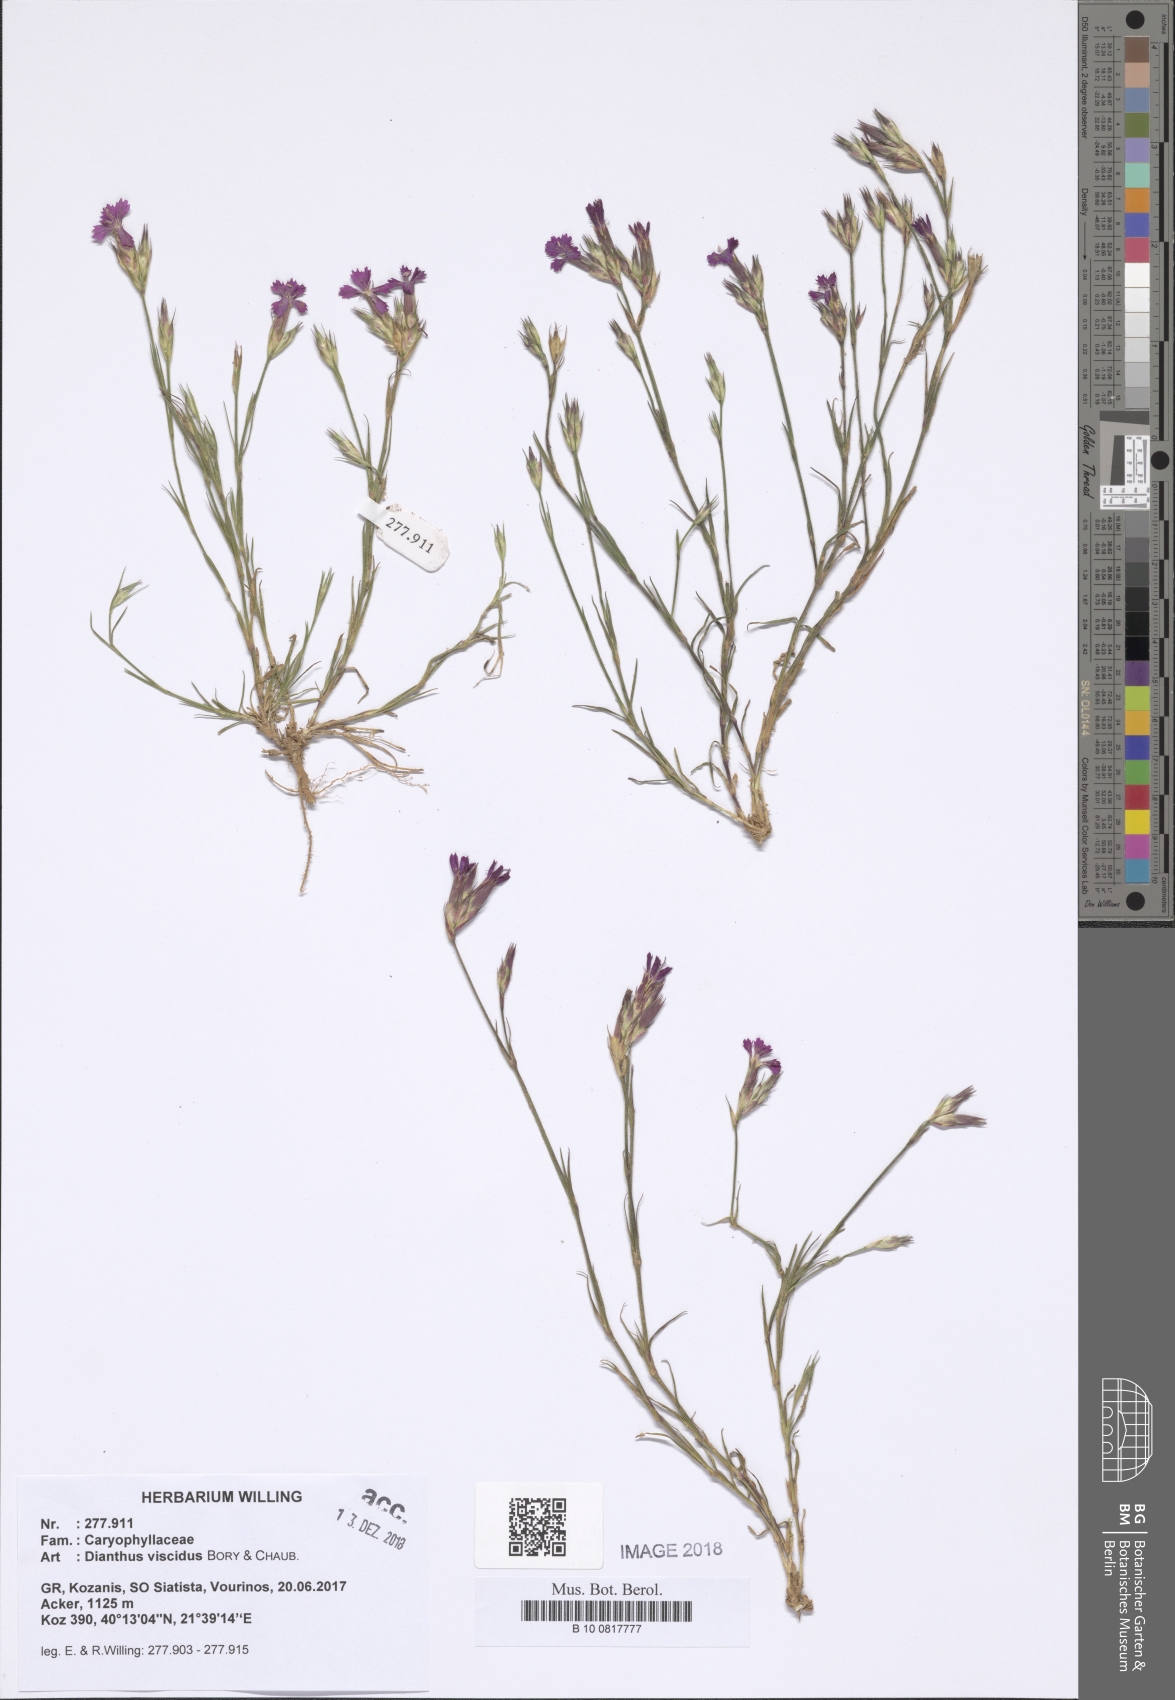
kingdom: Plantae
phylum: Tracheophyta
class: Magnoliopsida
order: Caryophyllales
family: Caryophyllaceae
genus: Dianthus
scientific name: Dianthus viscidus
